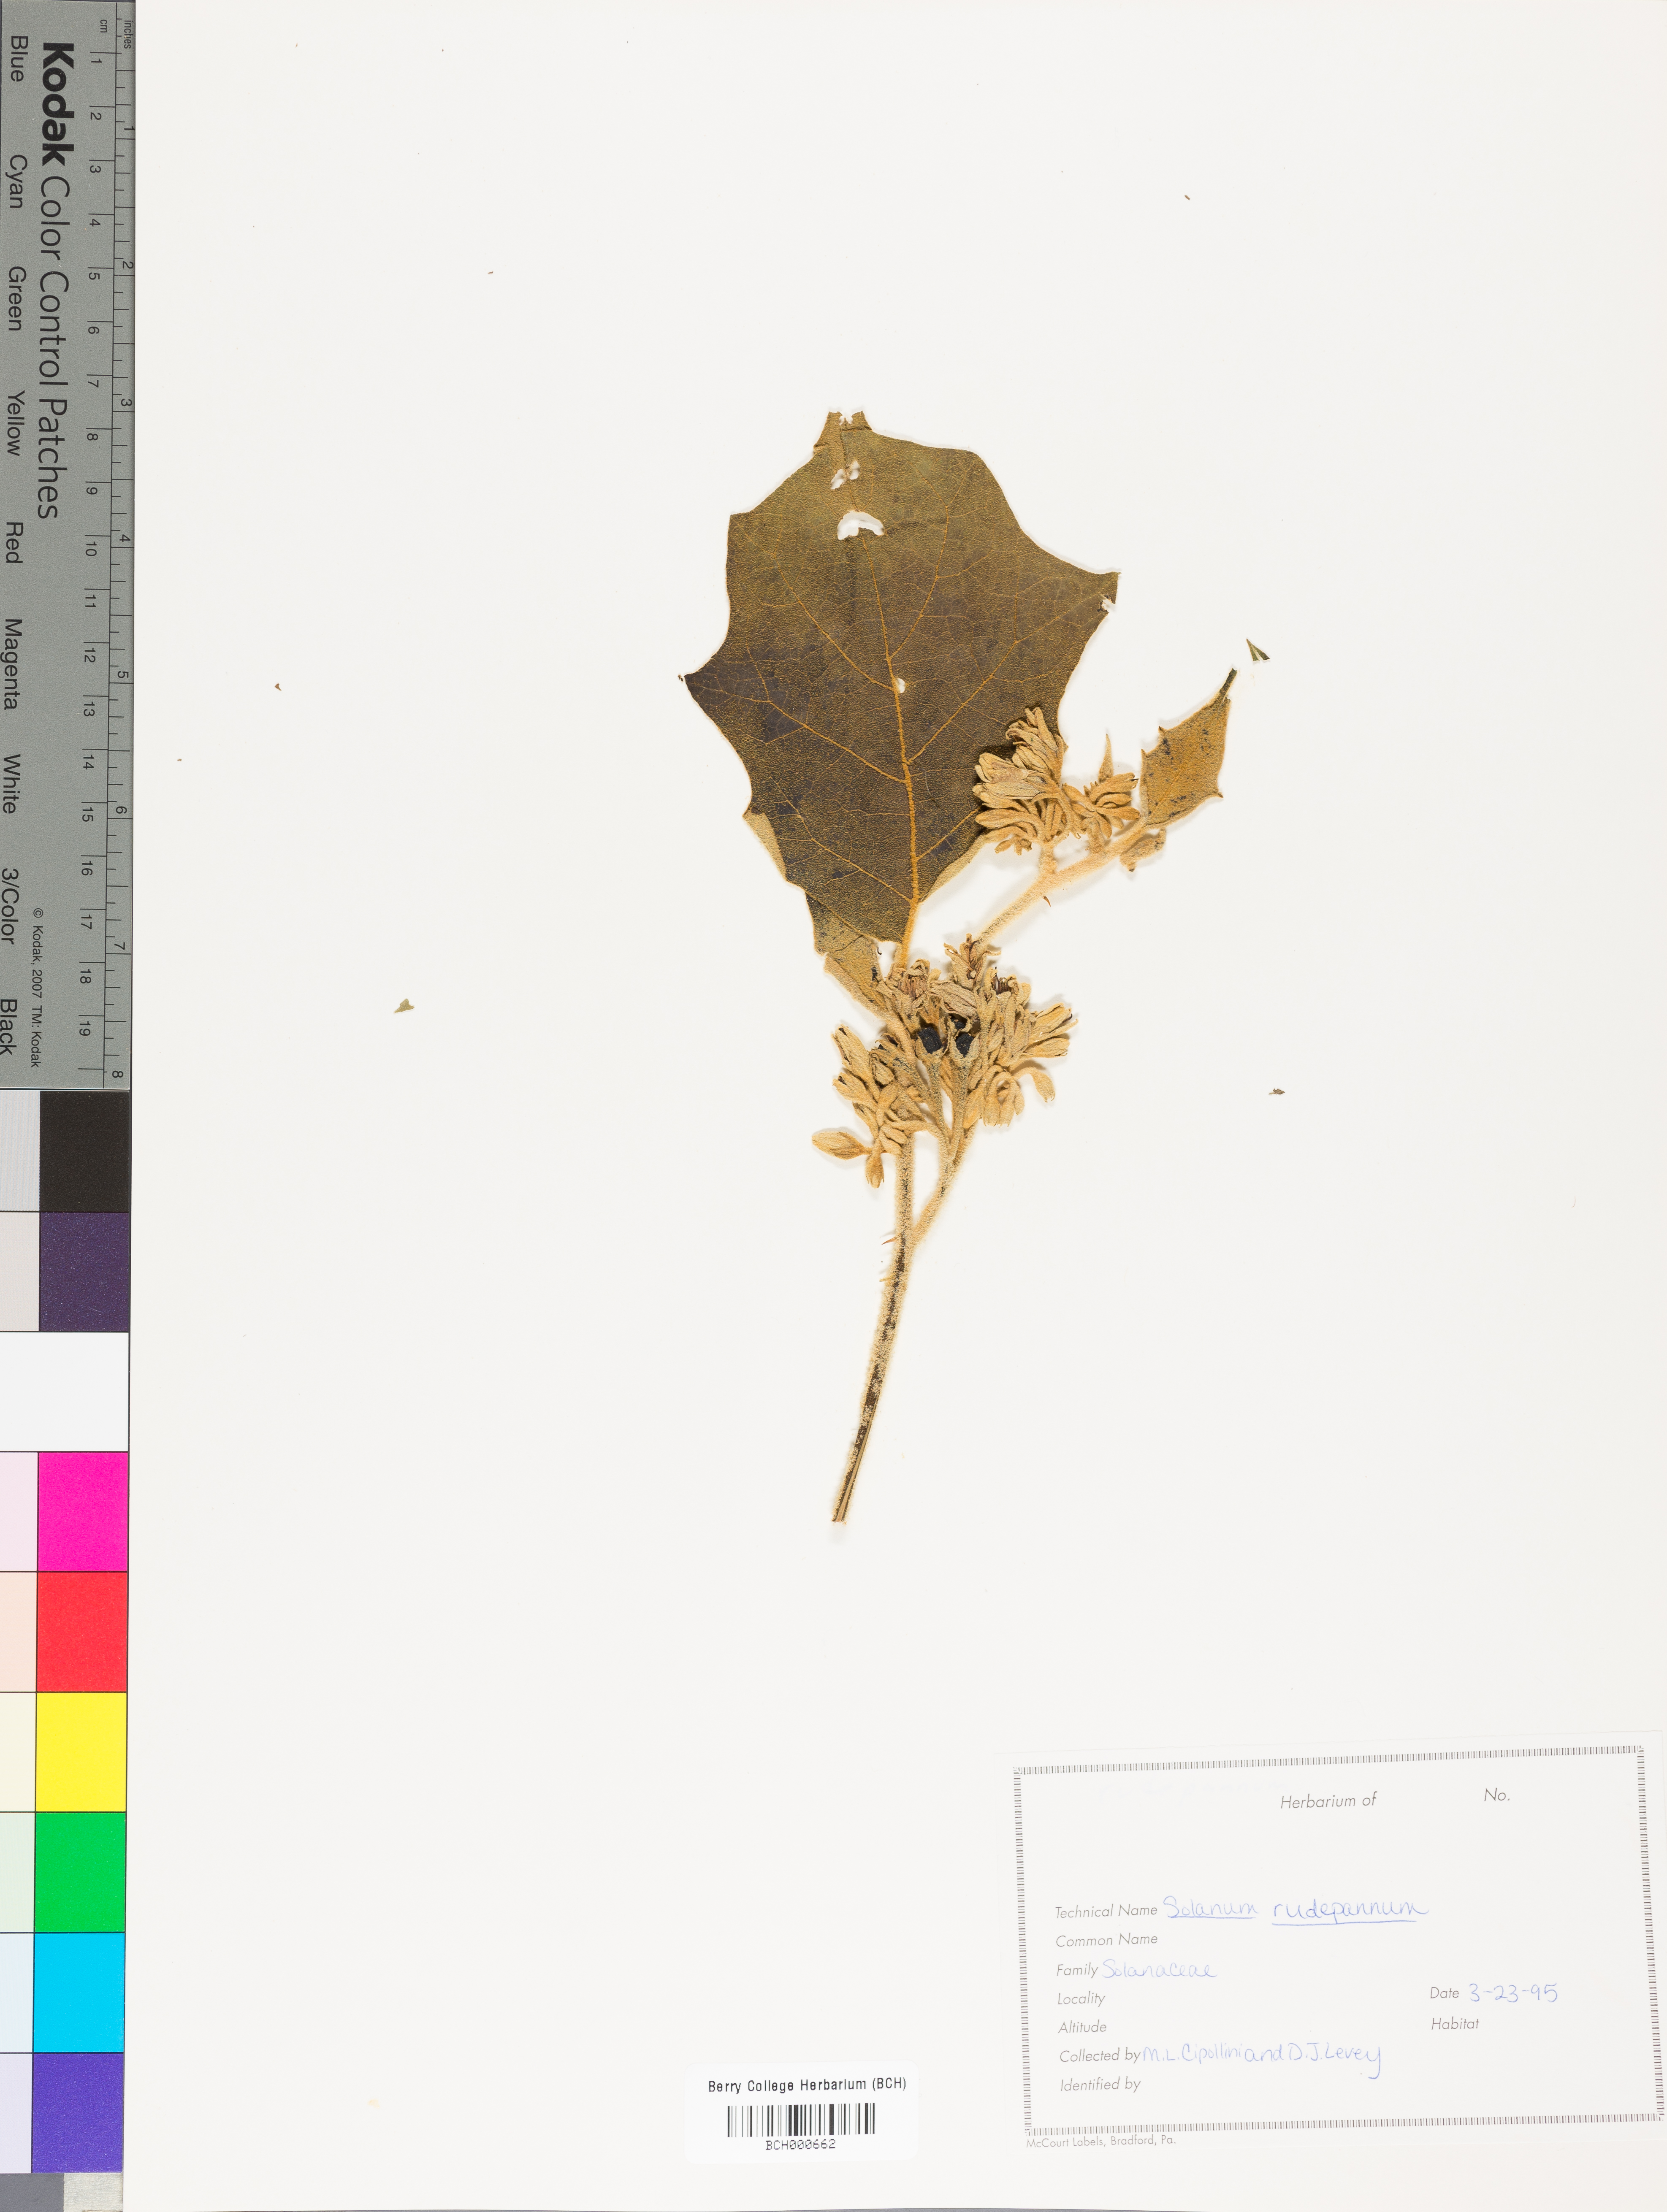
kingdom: Plantae
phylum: Tracheophyta
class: Magnoliopsida
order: Solanales
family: Solanaceae
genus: Solanum
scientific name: Solanum rude-pannum
